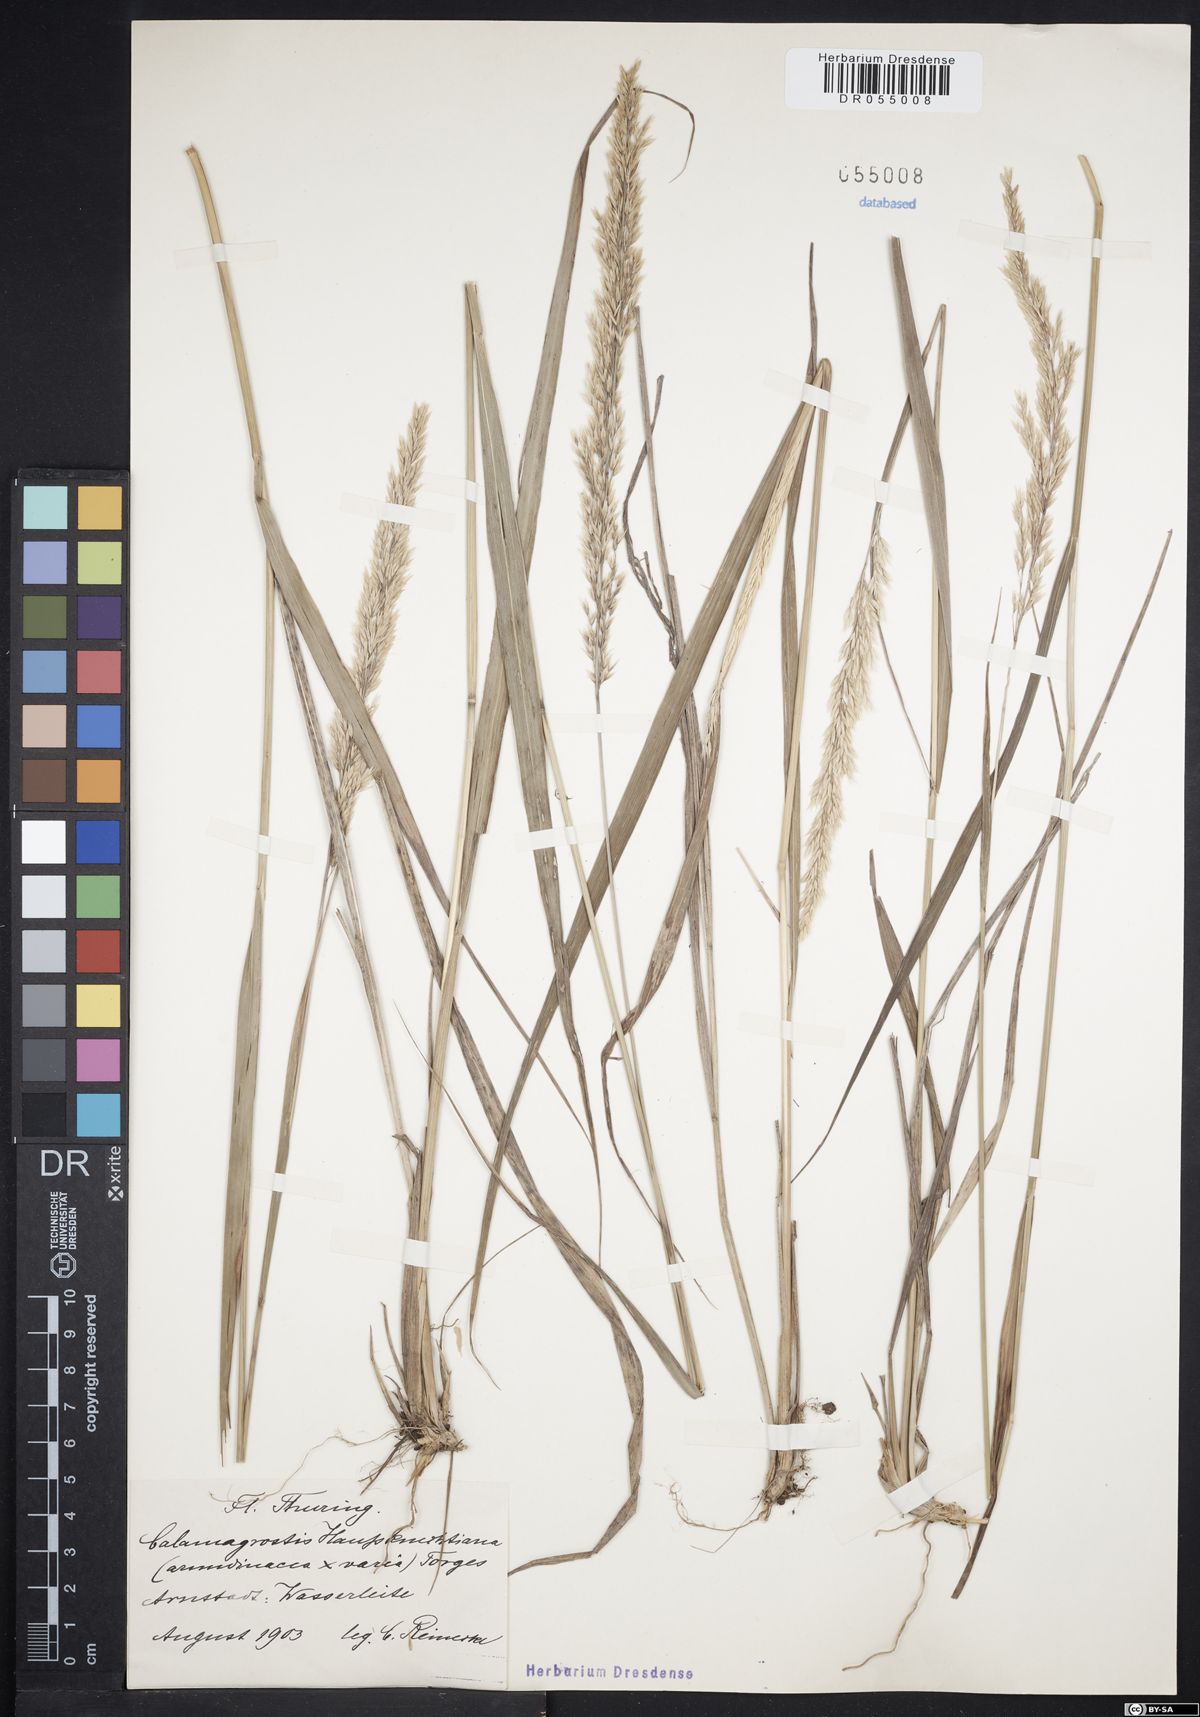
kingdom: Plantae
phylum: Tracheophyta
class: Liliopsida
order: Poales
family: Poaceae
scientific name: Poaceae
